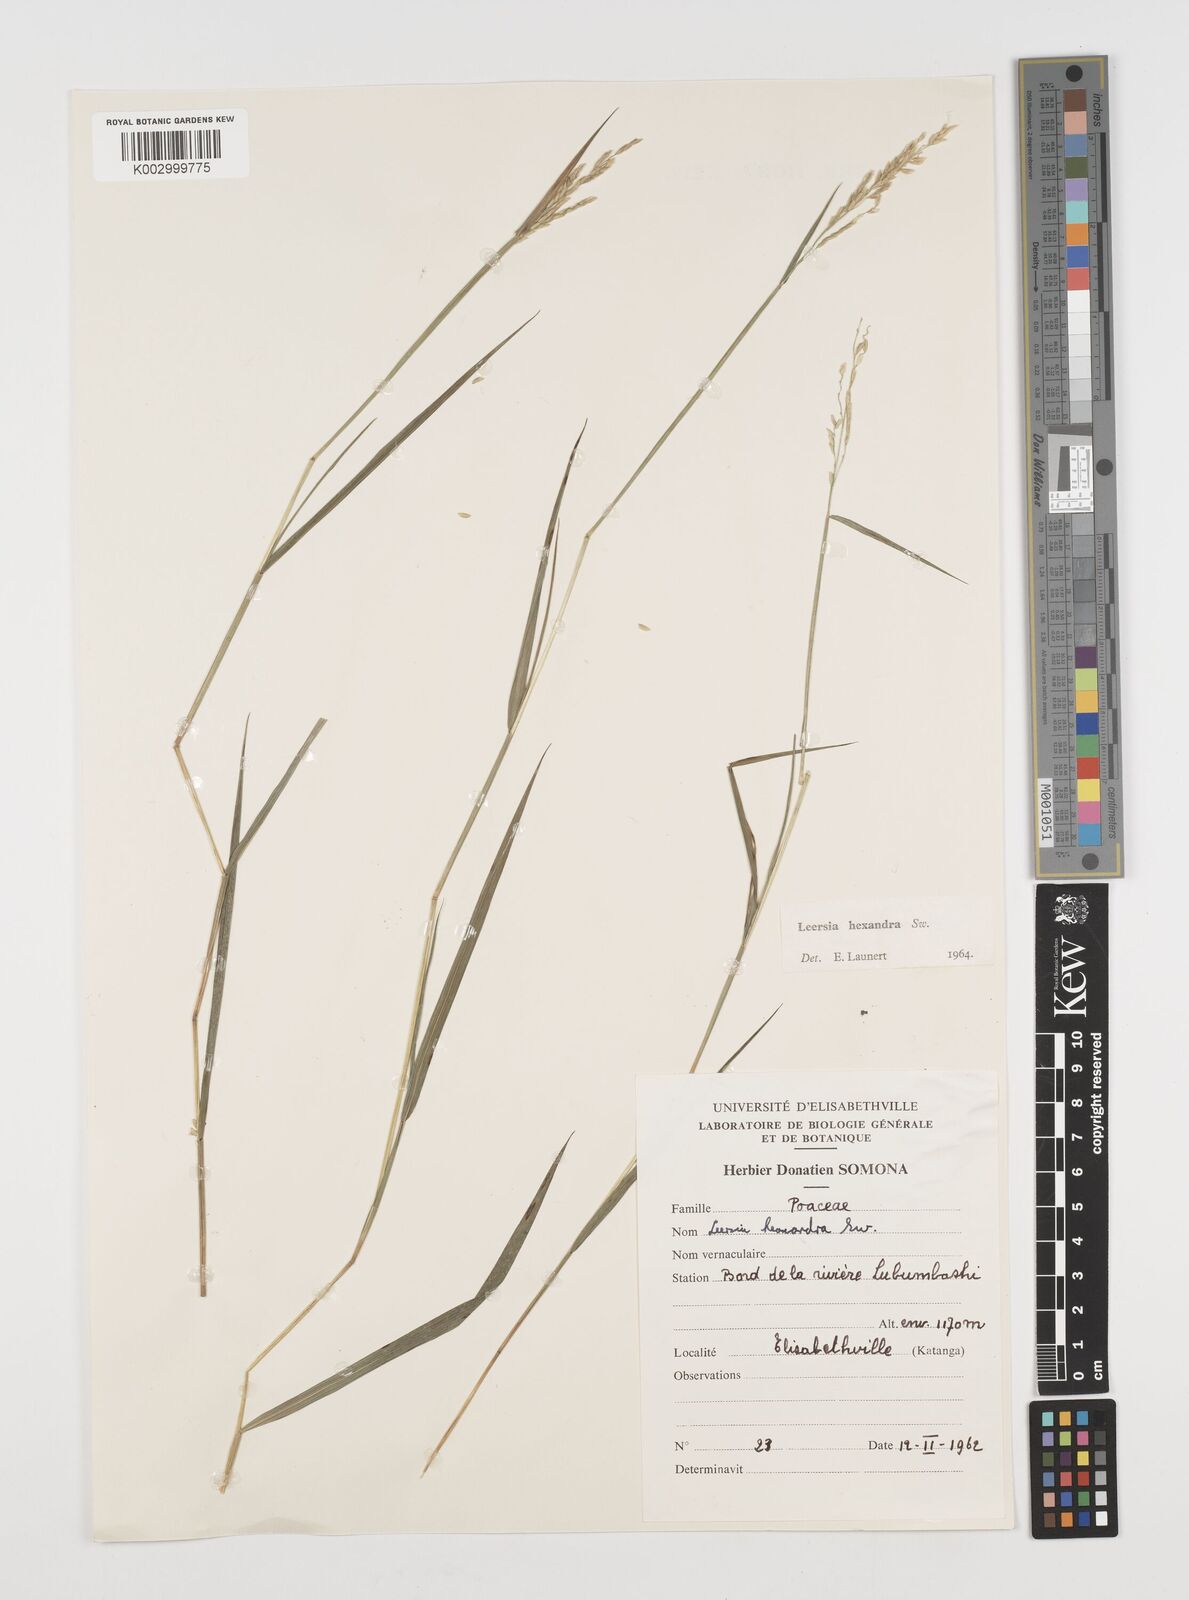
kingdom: Plantae
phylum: Tracheophyta
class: Liliopsida
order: Poales
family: Poaceae
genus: Leersia
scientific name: Leersia hexandra
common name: Southern cut grass
